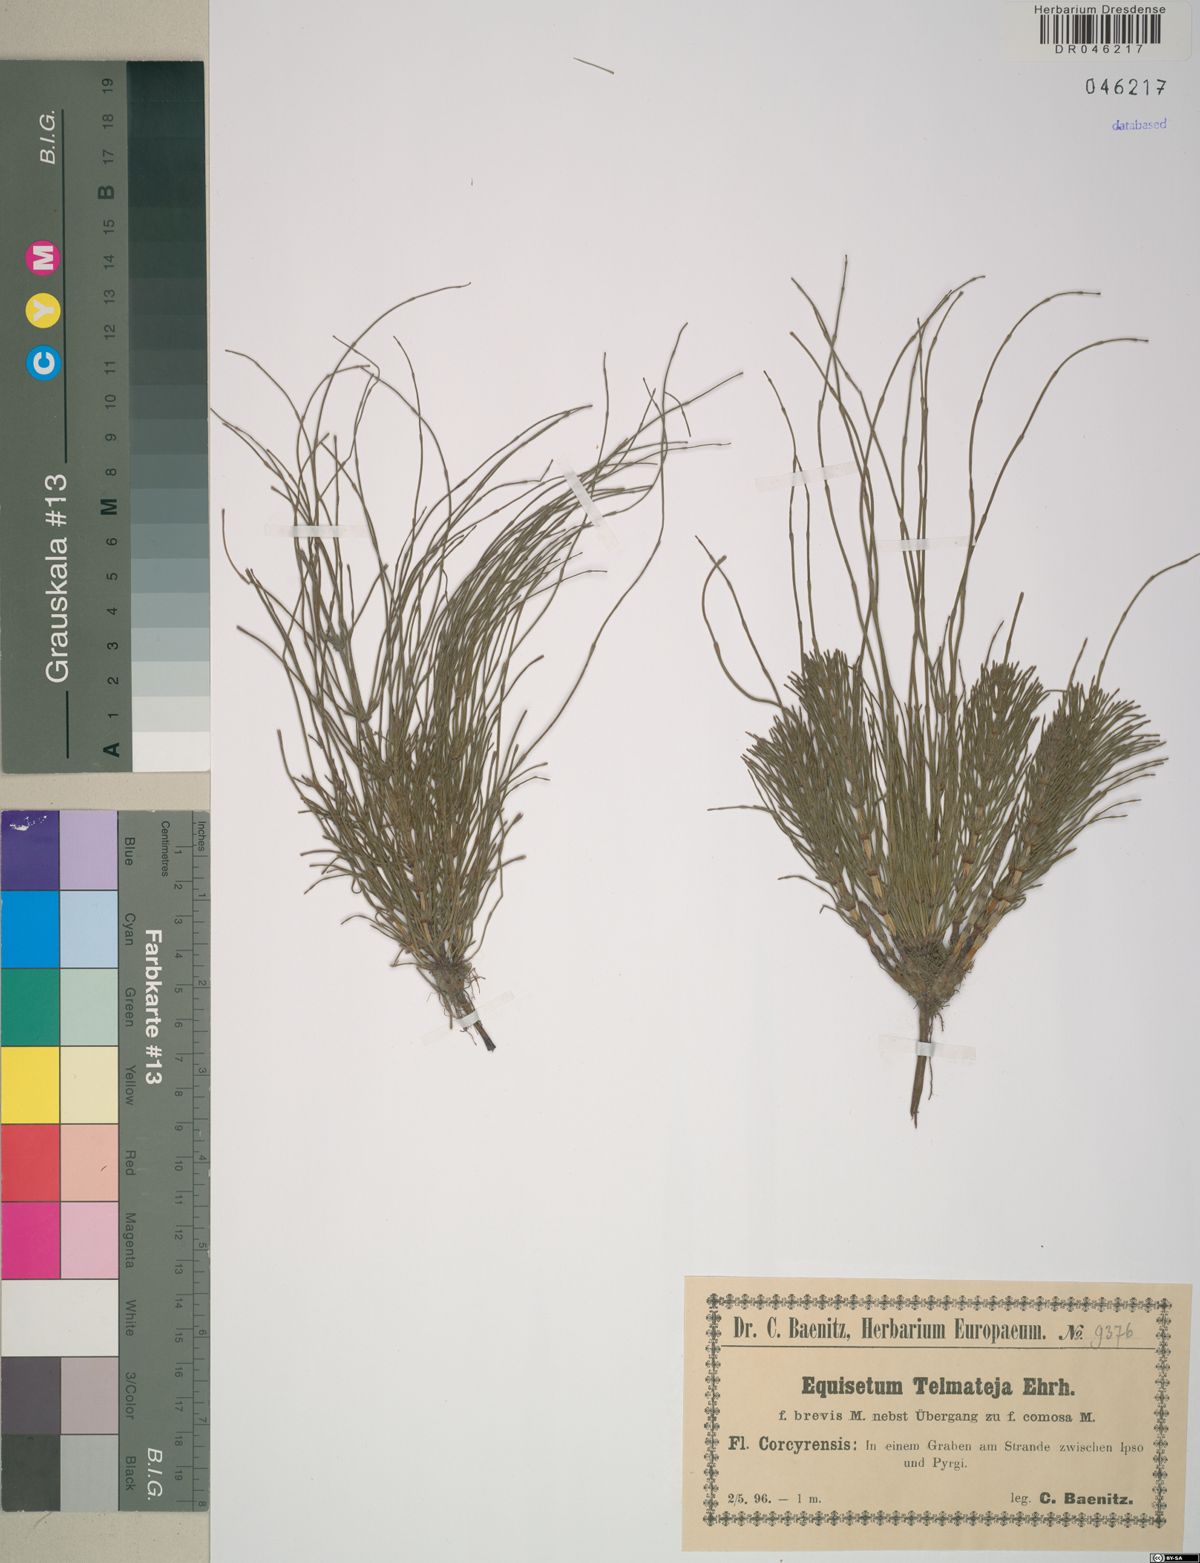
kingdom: Plantae
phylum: Tracheophyta
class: Polypodiopsida
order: Equisetales
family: Equisetaceae
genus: Equisetum
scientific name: Equisetum telmateia
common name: Great horsetail
